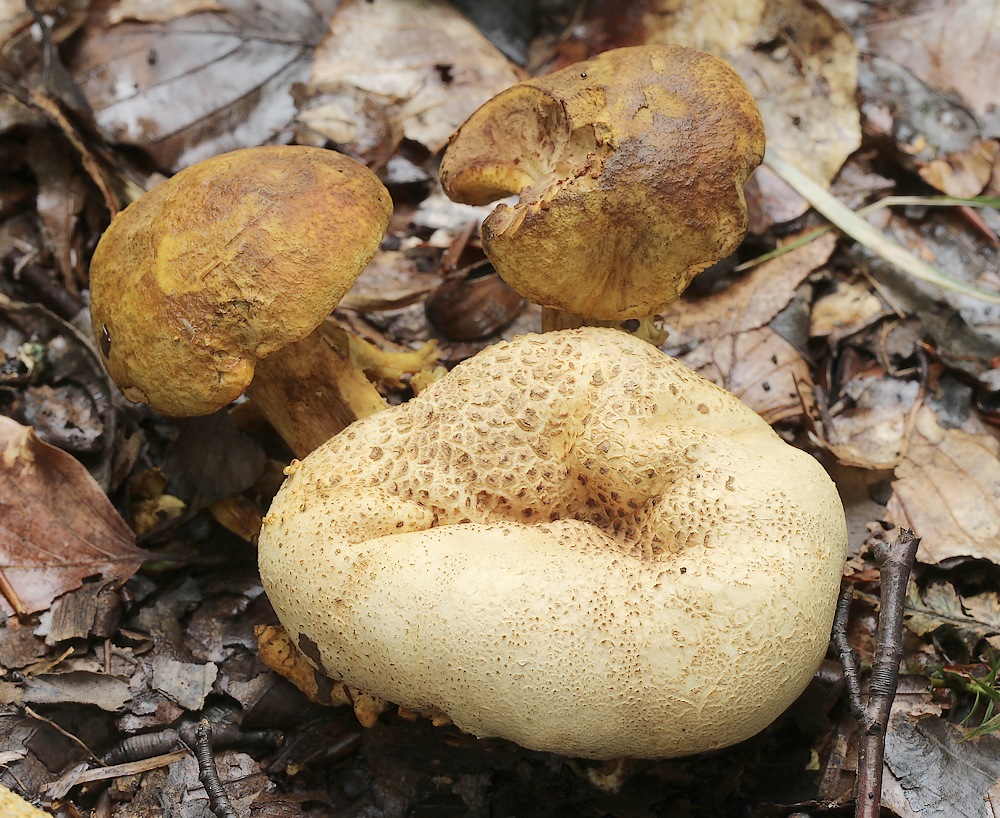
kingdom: Fungi
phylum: Basidiomycota
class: Agaricomycetes
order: Boletales
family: Boletaceae
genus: Pseudoboletus
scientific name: Pseudoboletus parasiticus
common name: snyltende rørhat
